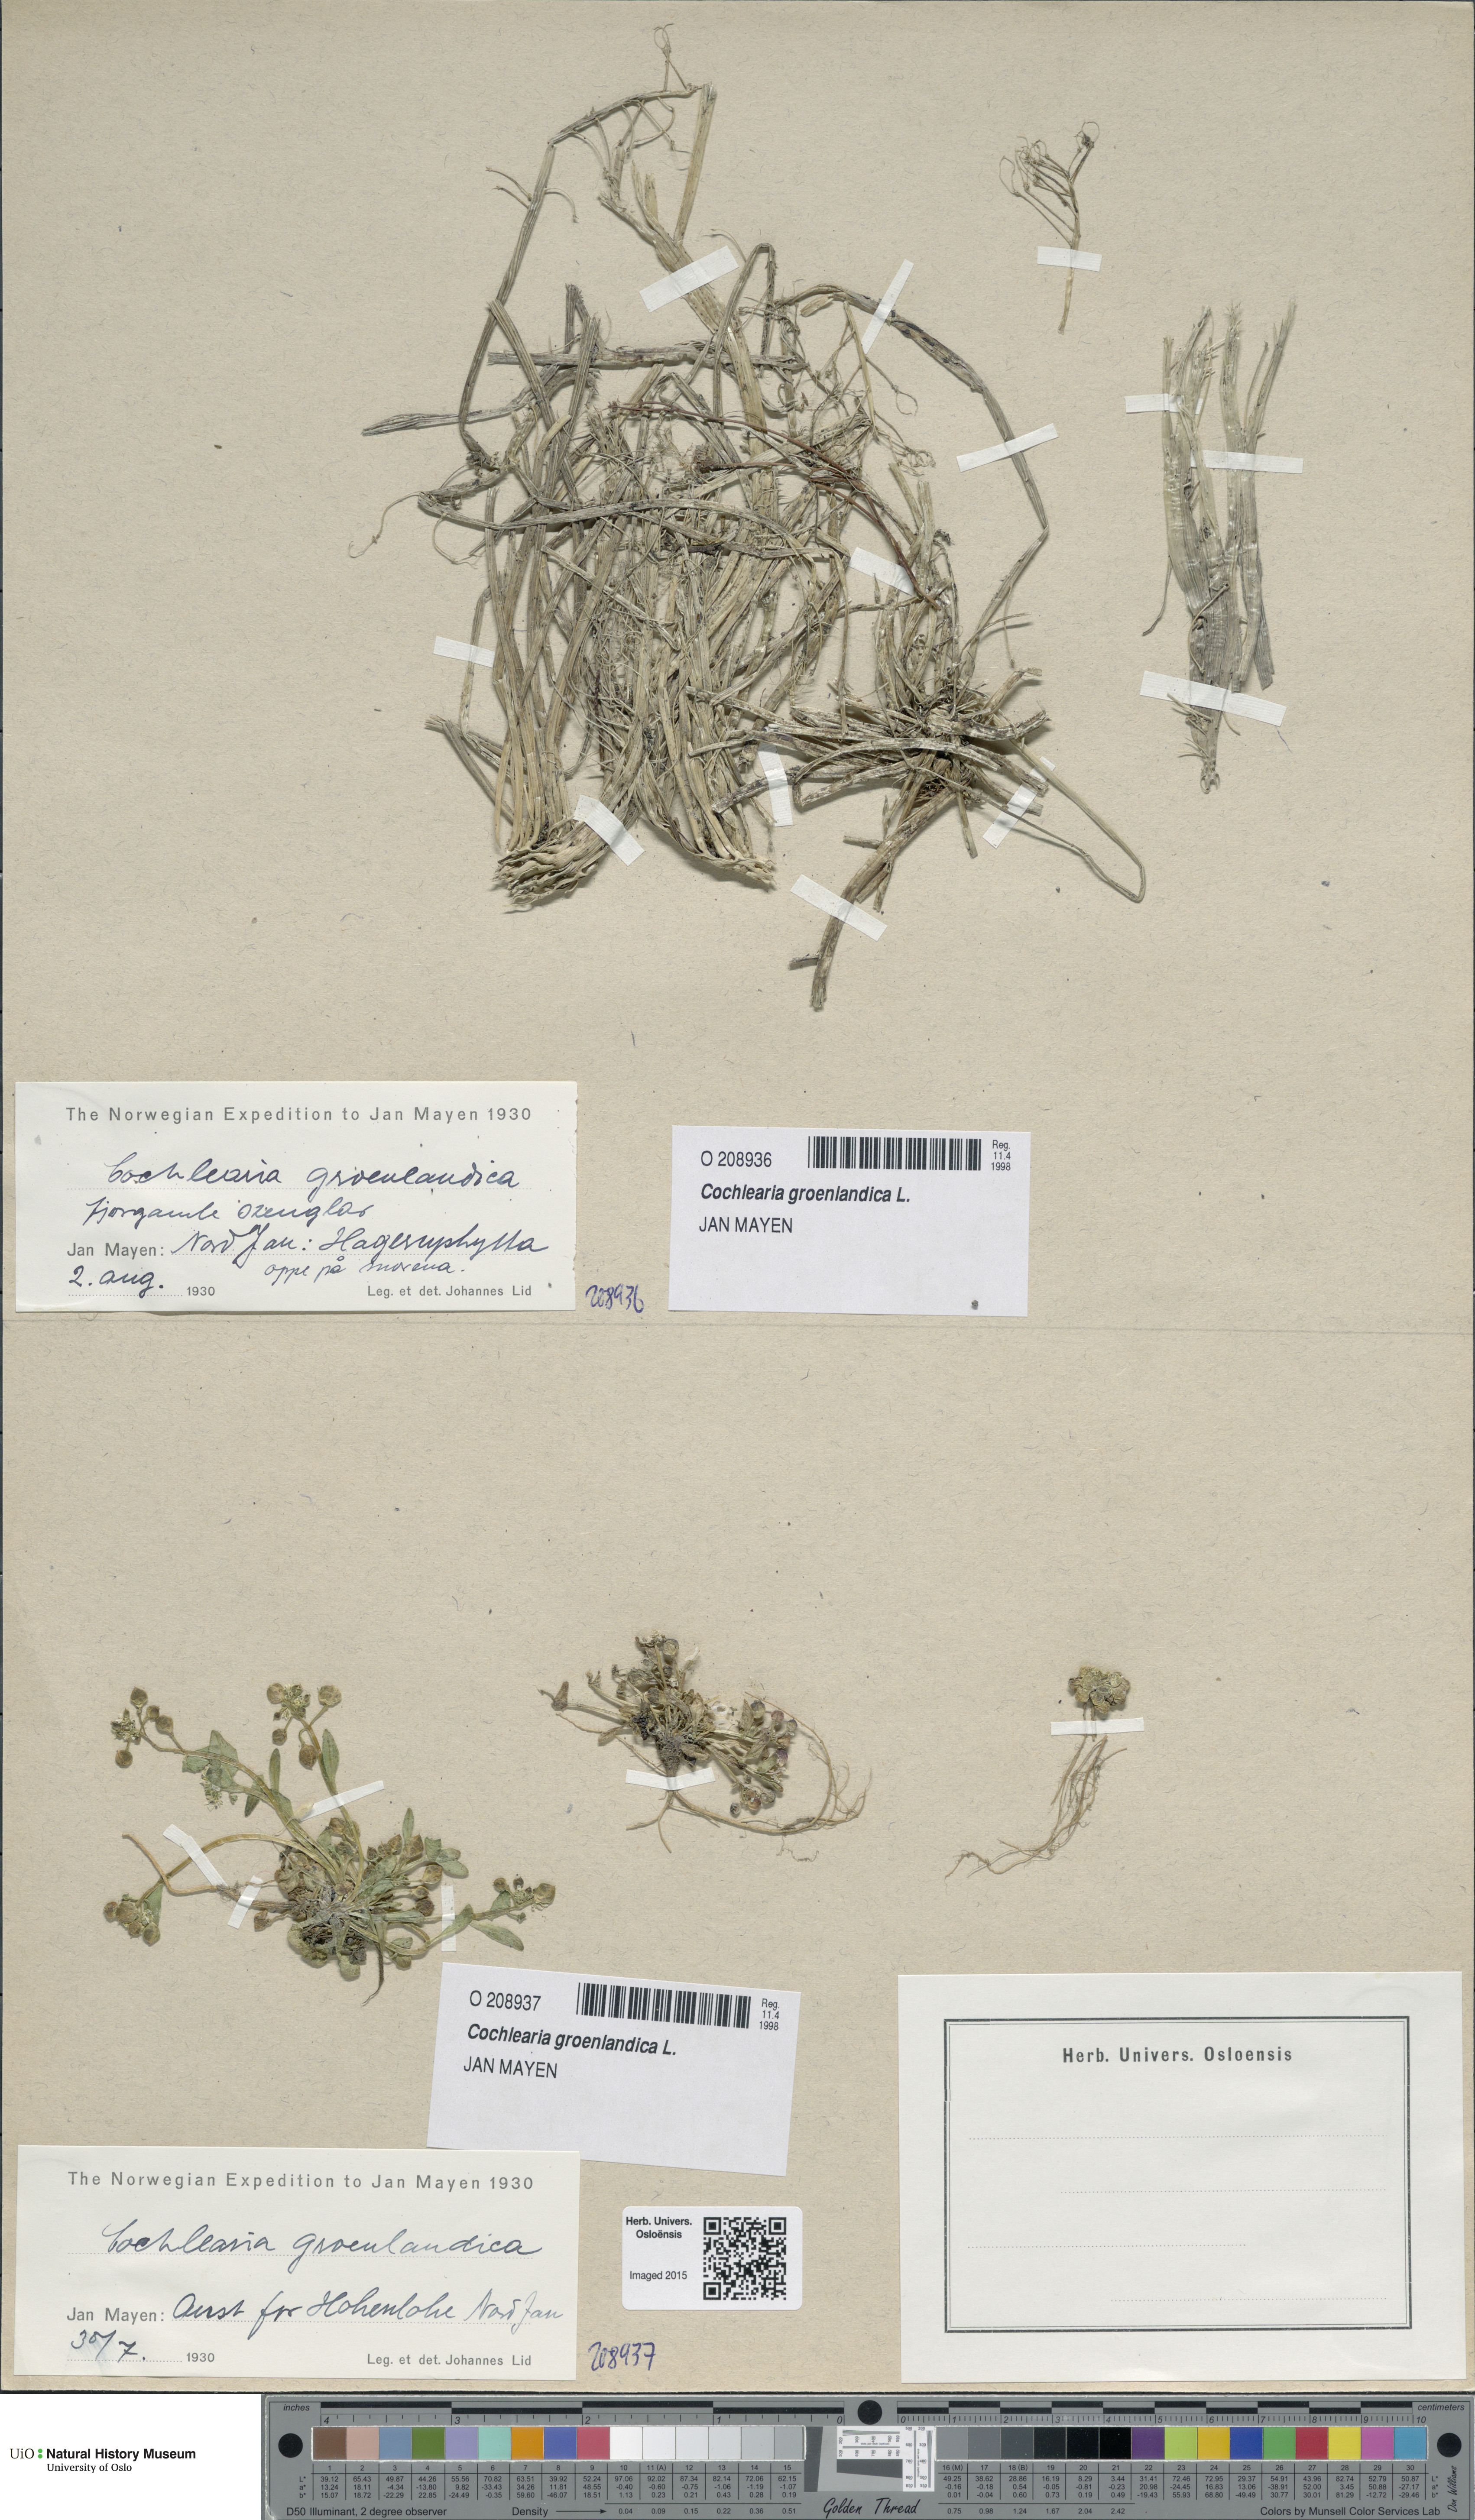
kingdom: Plantae
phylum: Tracheophyta
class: Magnoliopsida
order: Brassicales
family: Brassicaceae
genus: Cochlearia
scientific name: Cochlearia groenlandica
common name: Danish scurvygrass
